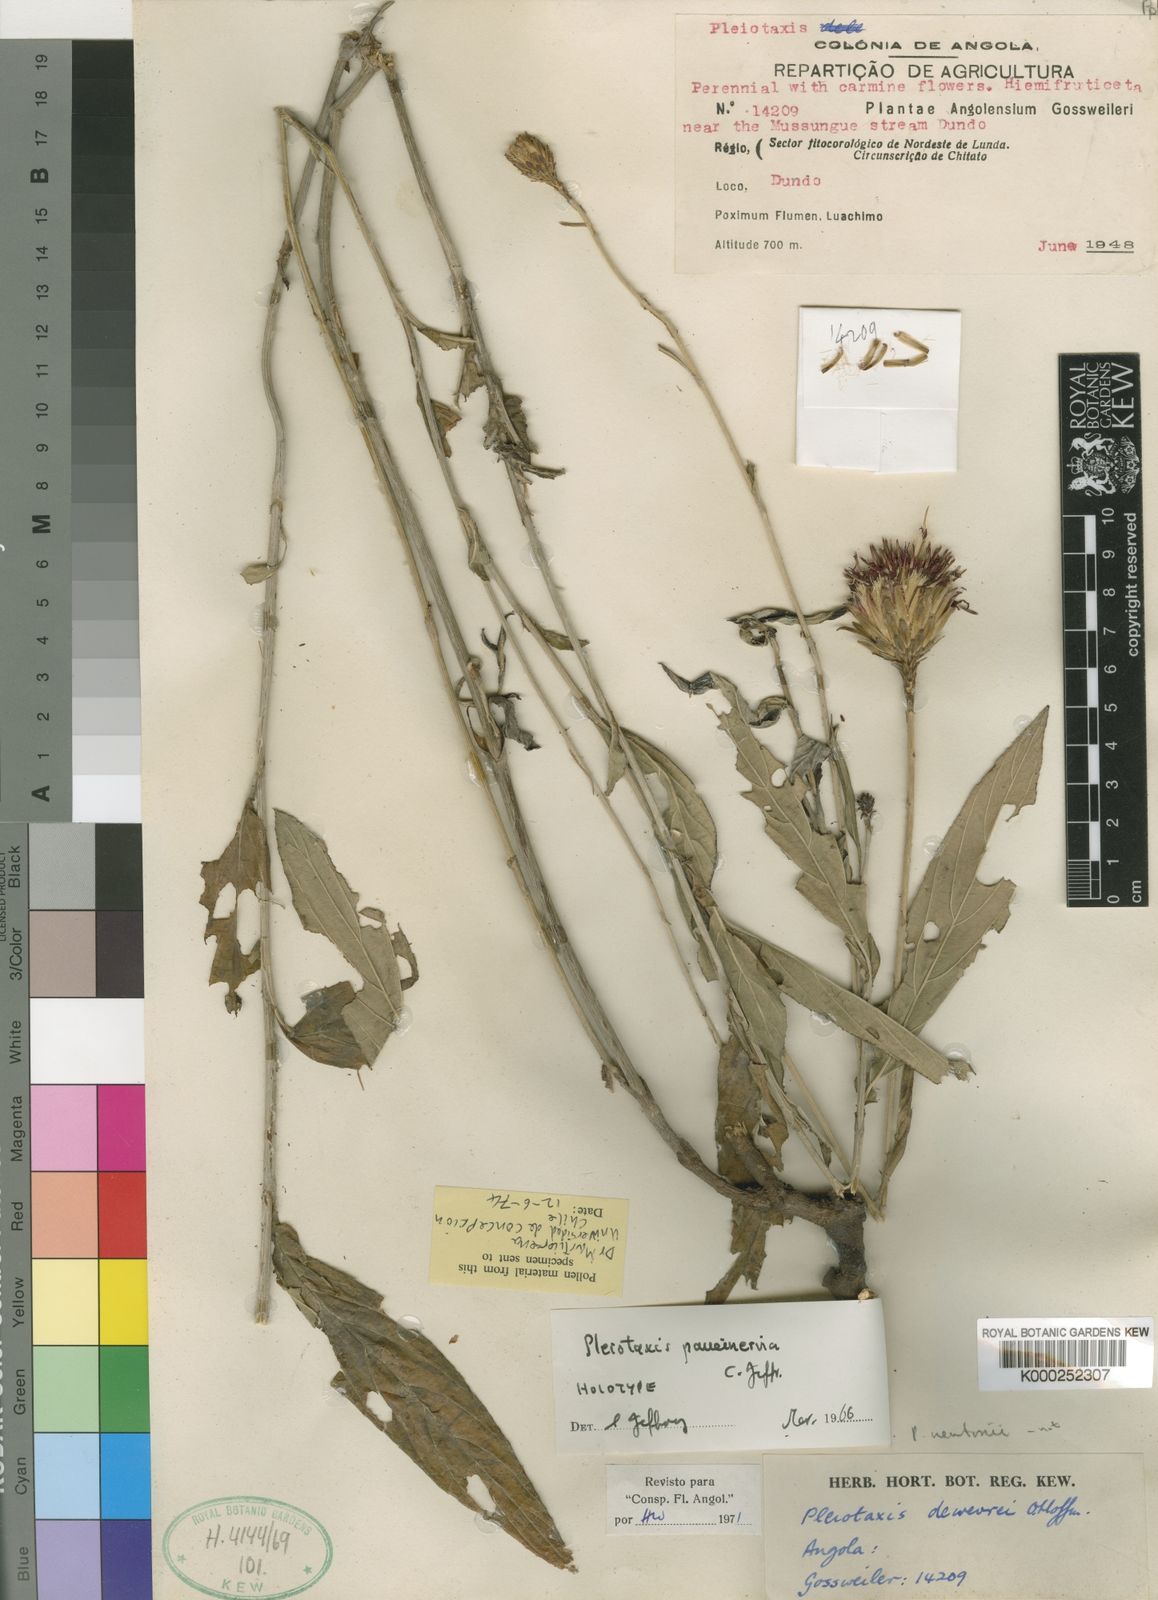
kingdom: Plantae
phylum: Tracheophyta
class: Magnoliopsida
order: Asterales
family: Asteraceae
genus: Pleiotaxis
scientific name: Pleiotaxis newtonii
